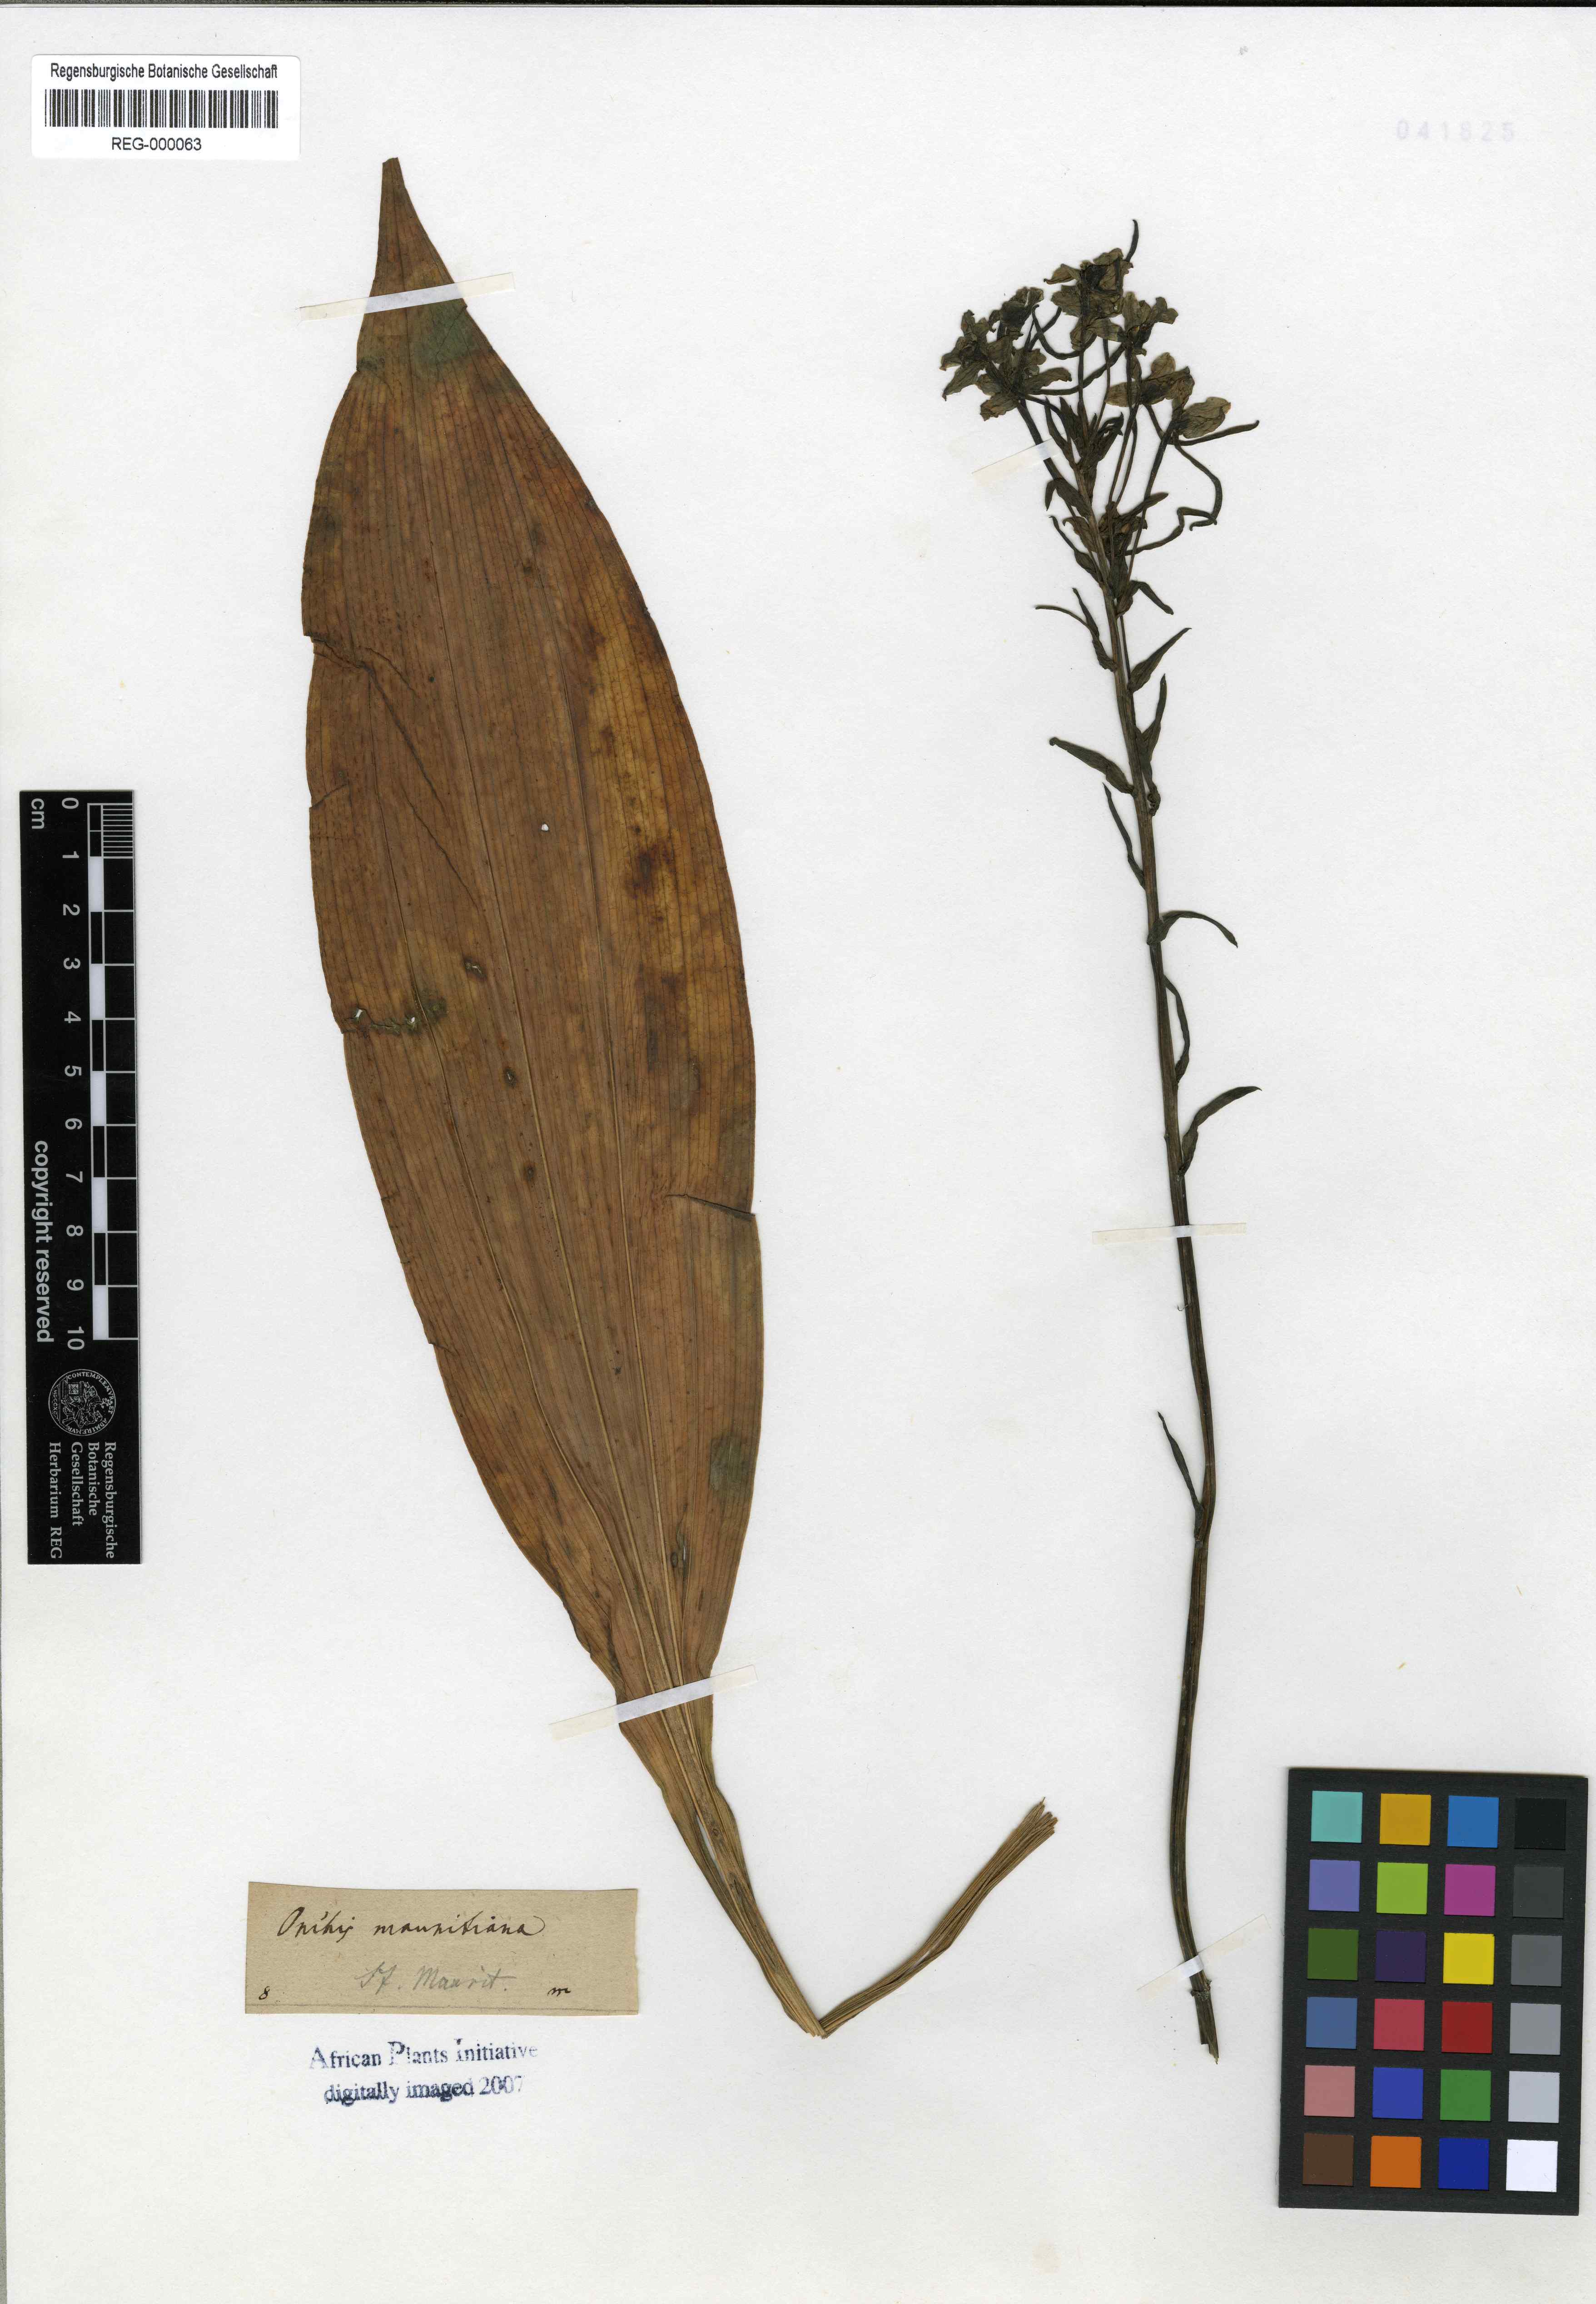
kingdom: Plantae
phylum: Tracheophyta
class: Liliopsida
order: Asparagales
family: Orchidaceae
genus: Cynorkis
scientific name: Cynorkis fastigiata
